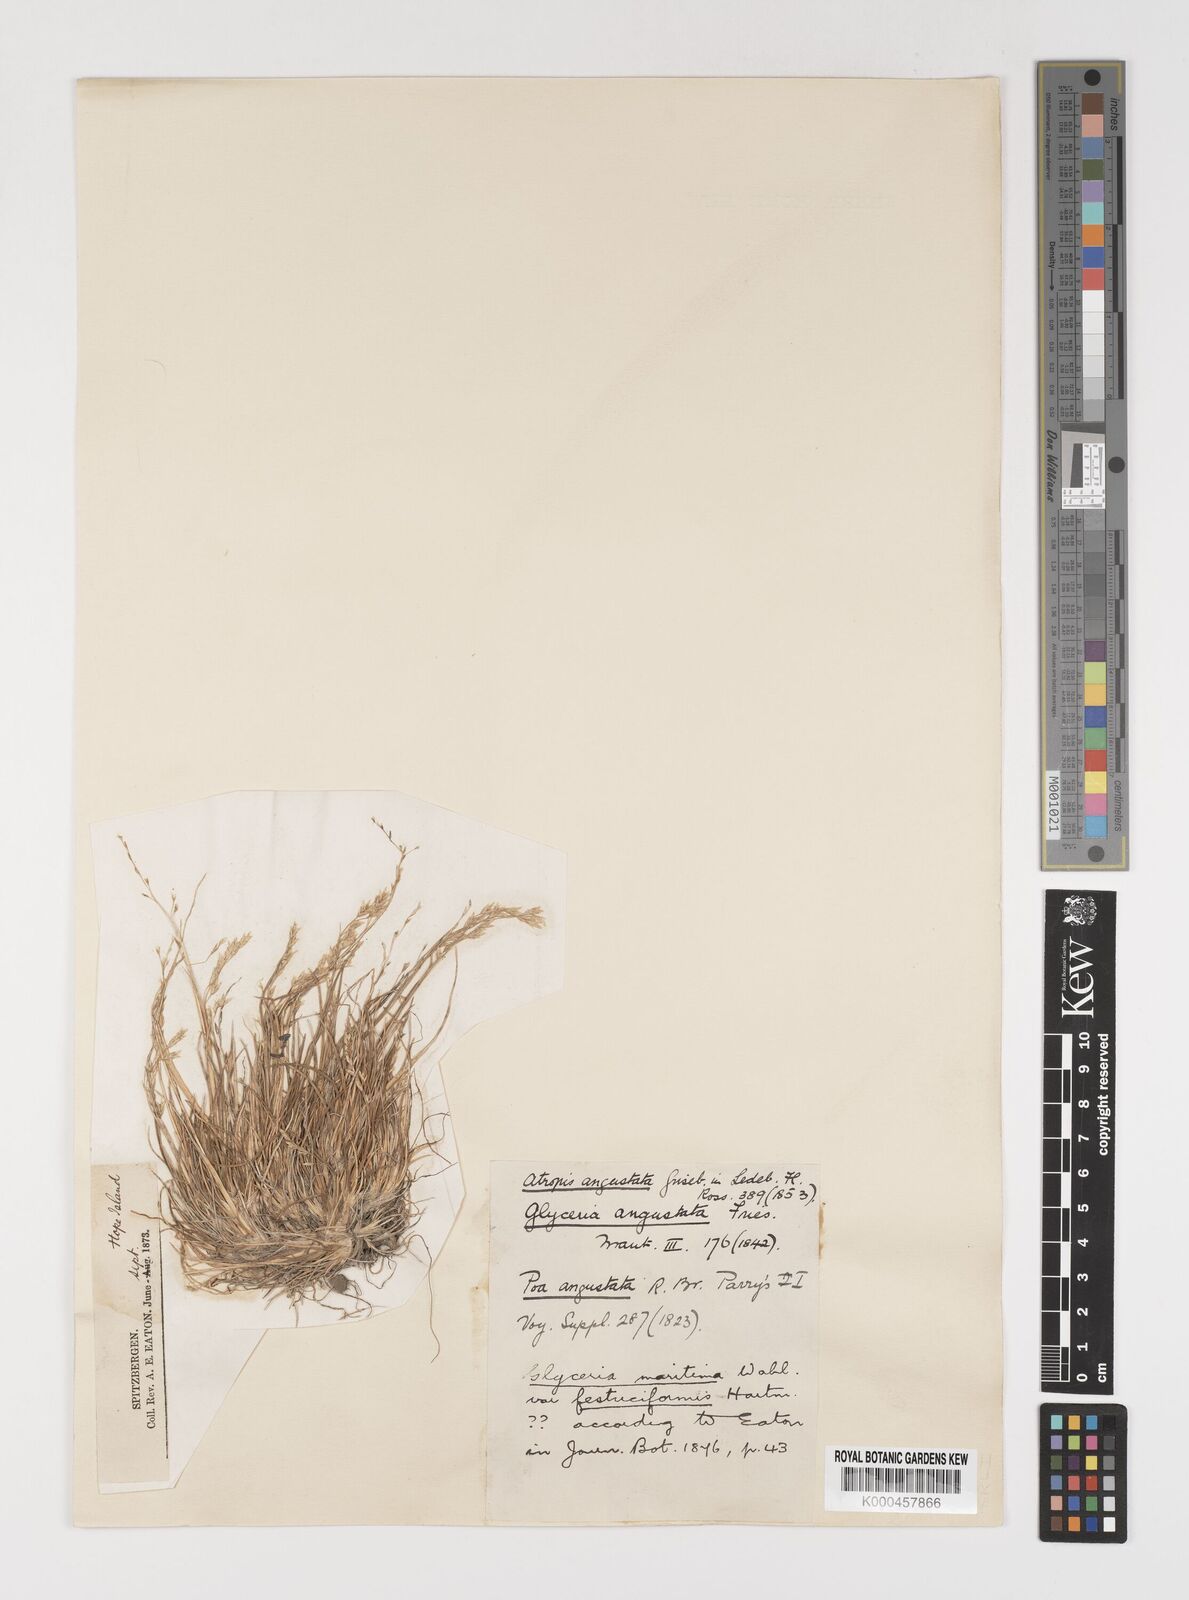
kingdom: Plantae
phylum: Tracheophyta
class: Liliopsida
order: Poales
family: Poaceae
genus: Puccinellia
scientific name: Puccinellia angustata
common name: Narrow alkaligrass
